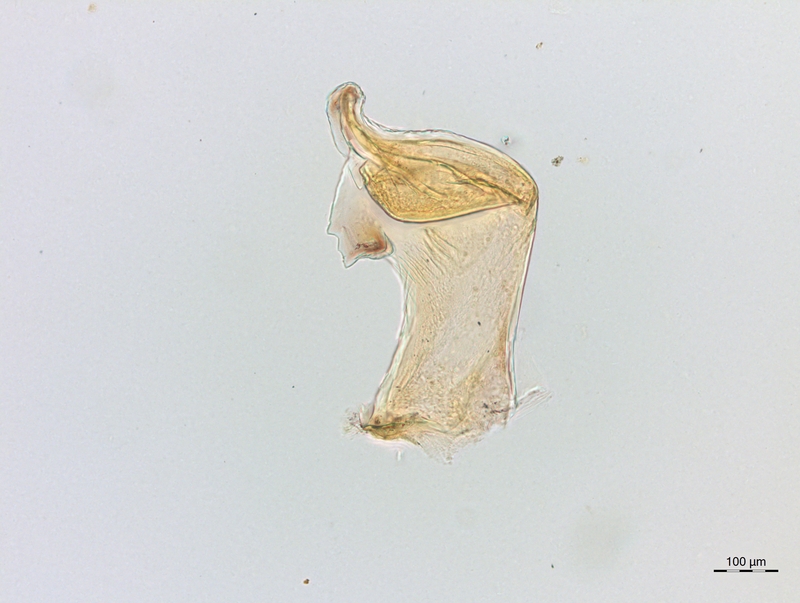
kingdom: Animalia
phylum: Arthropoda
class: Diplopoda
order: Chordeumatida
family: Craspedosomatidae
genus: Craspedosoma
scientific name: Craspedosoma rawlinsii
